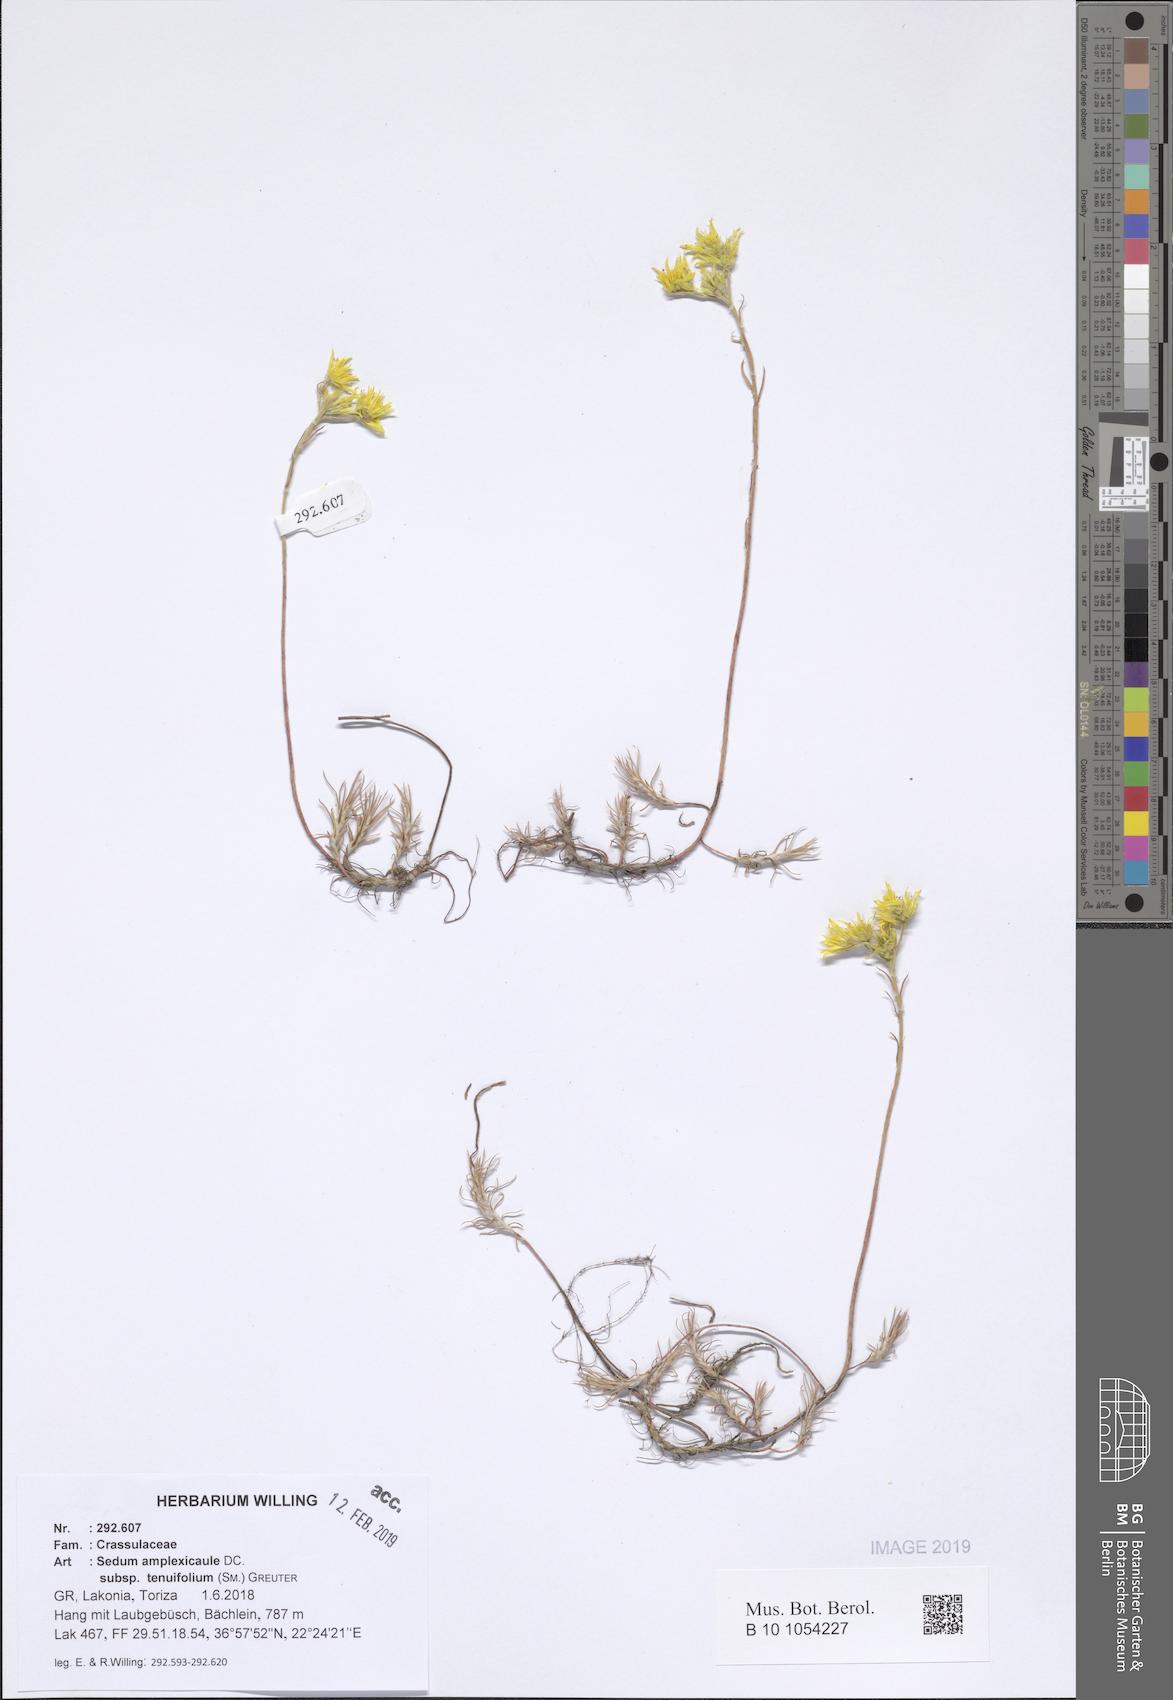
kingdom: Plantae
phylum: Tracheophyta
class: Magnoliopsida
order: Saxifragales
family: Crassulaceae
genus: Petrosedum
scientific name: Petrosedum tenuifolium
